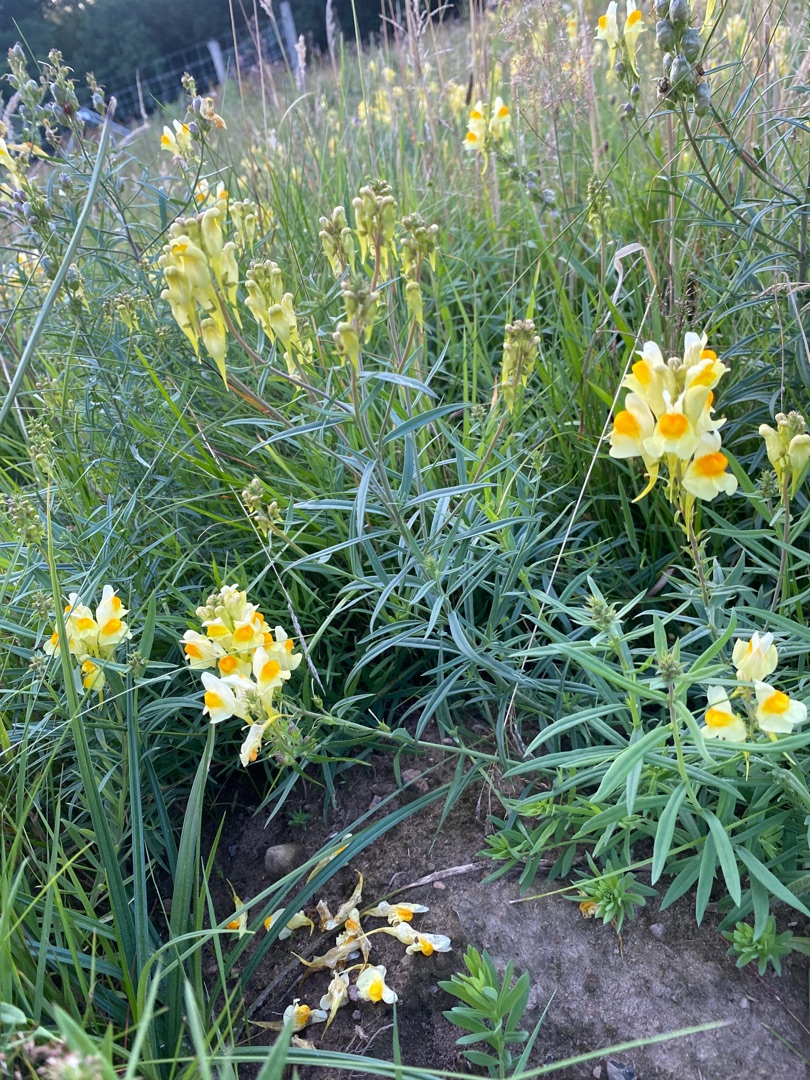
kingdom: Plantae
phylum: Tracheophyta
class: Magnoliopsida
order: Lamiales
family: Plantaginaceae
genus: Linaria
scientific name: Linaria vulgaris
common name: Almindelig torskemund
